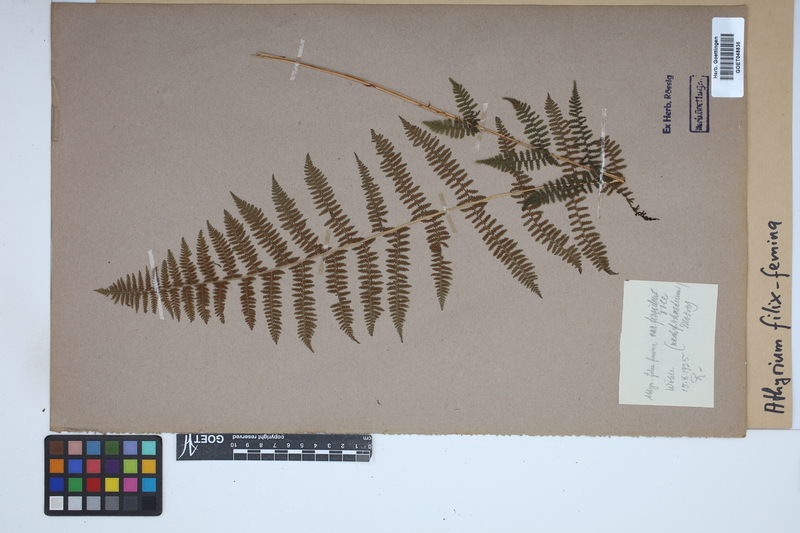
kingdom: Plantae
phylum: Tracheophyta
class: Polypodiopsida
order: Polypodiales
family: Athyriaceae
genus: Athyrium
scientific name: Athyrium filix-femina
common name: Lady fern
